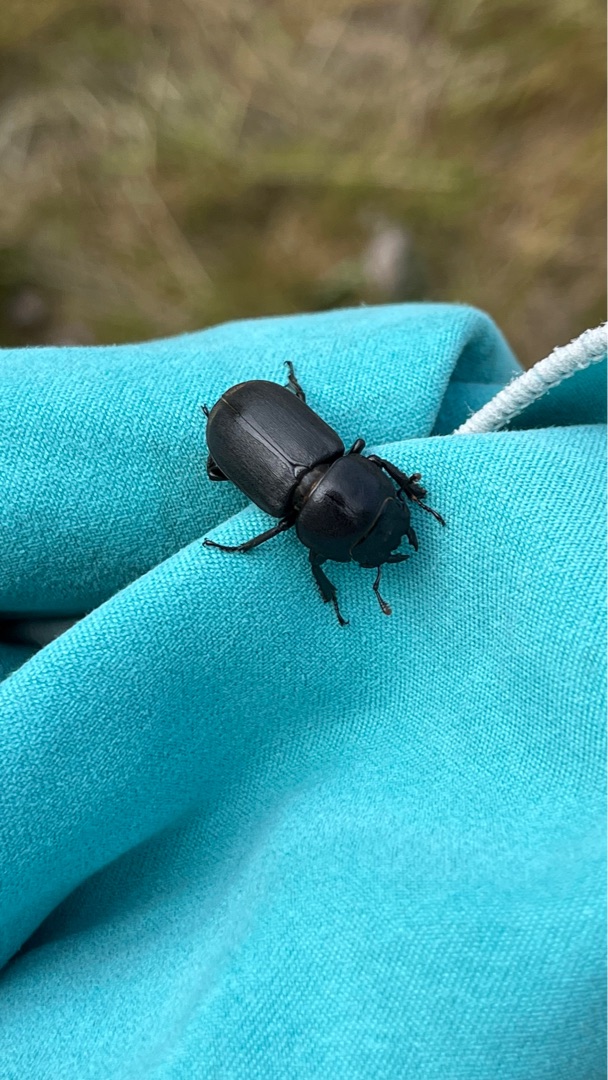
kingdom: Animalia
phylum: Arthropoda
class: Insecta
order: Coleoptera
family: Lucanidae
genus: Dorcus
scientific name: Dorcus parallelipipedus
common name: Bøghjort
